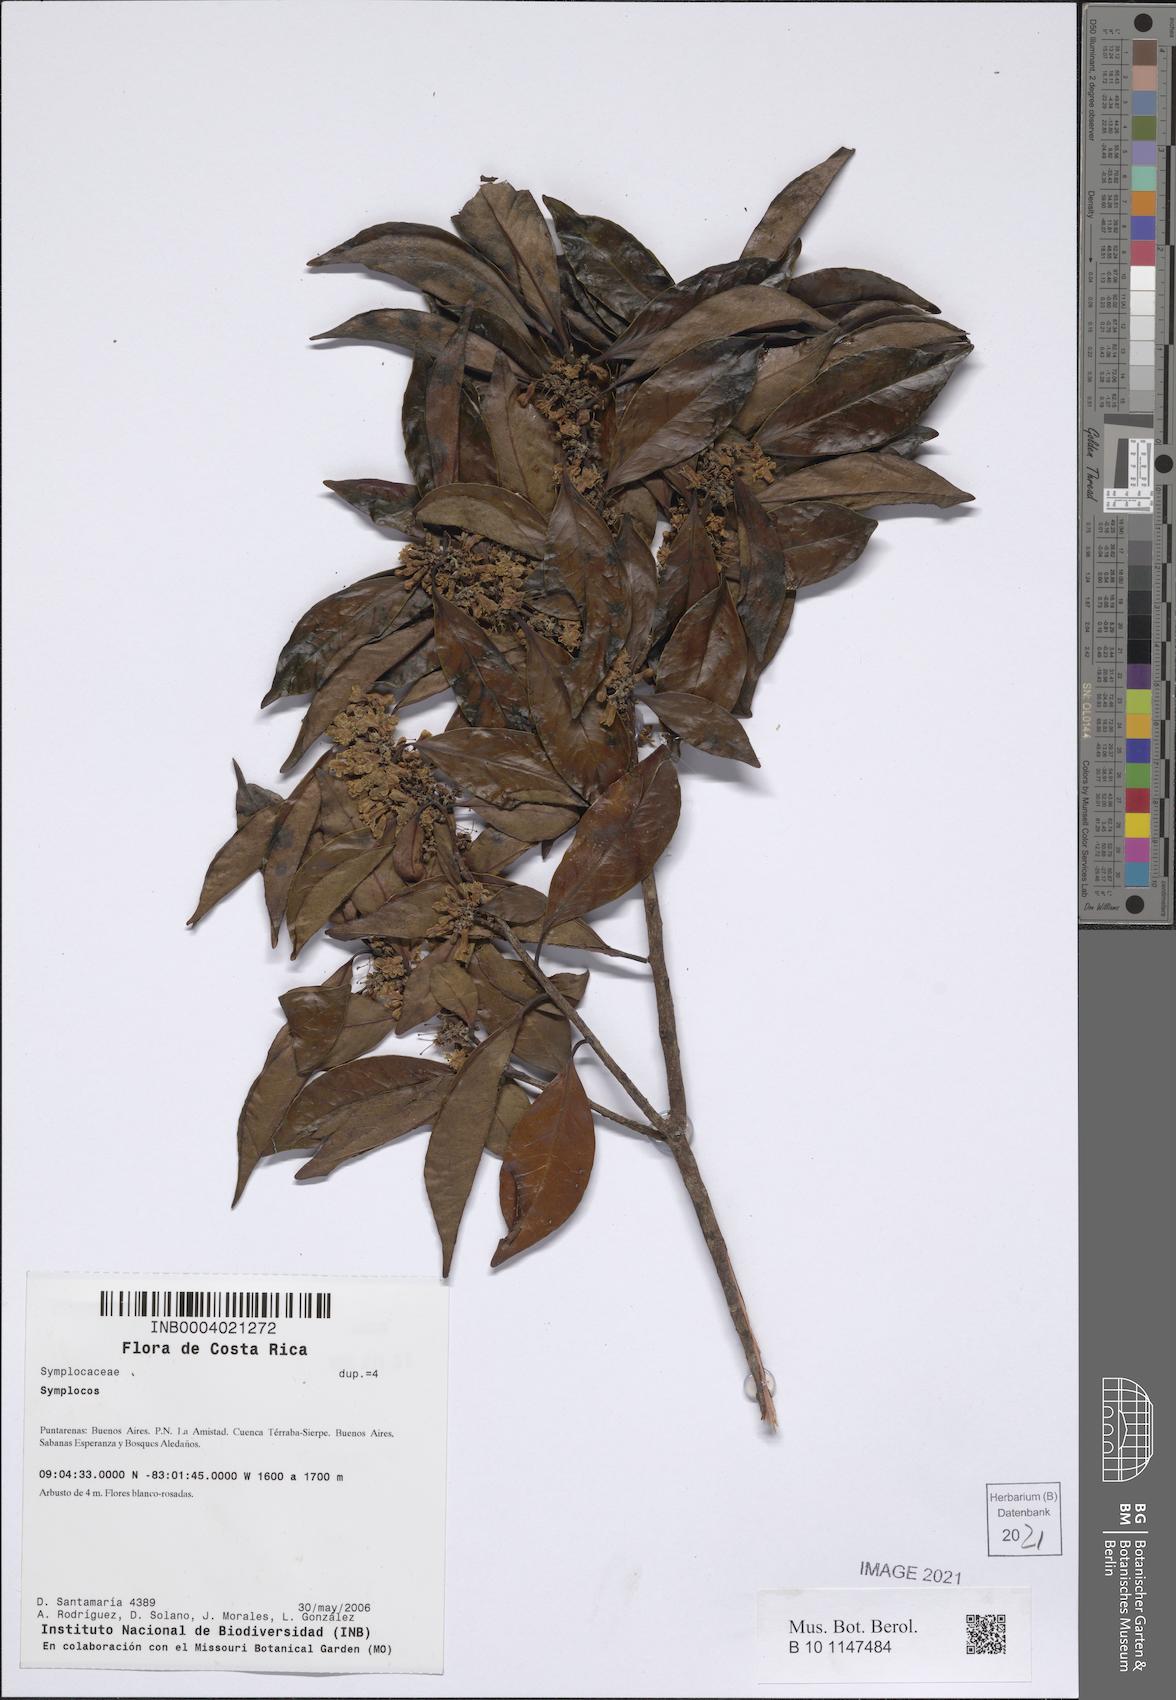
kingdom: Plantae
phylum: Tracheophyta
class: Magnoliopsida
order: Ericales
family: Symplocaceae
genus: Symplocos
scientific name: Symplocos
